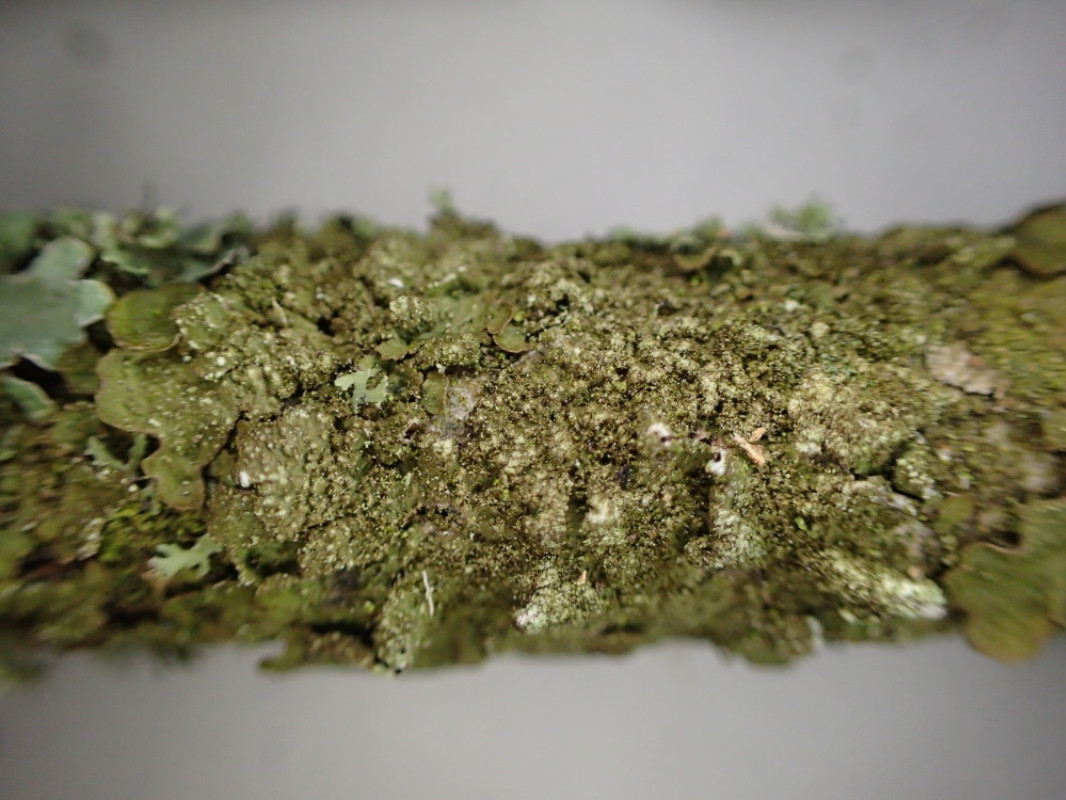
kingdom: Fungi
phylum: Ascomycota
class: Lecanoromycetes
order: Lecanorales
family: Parmeliaceae
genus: Melanelixia
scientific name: Melanelixia subaurifera
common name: guldpudret skållav
